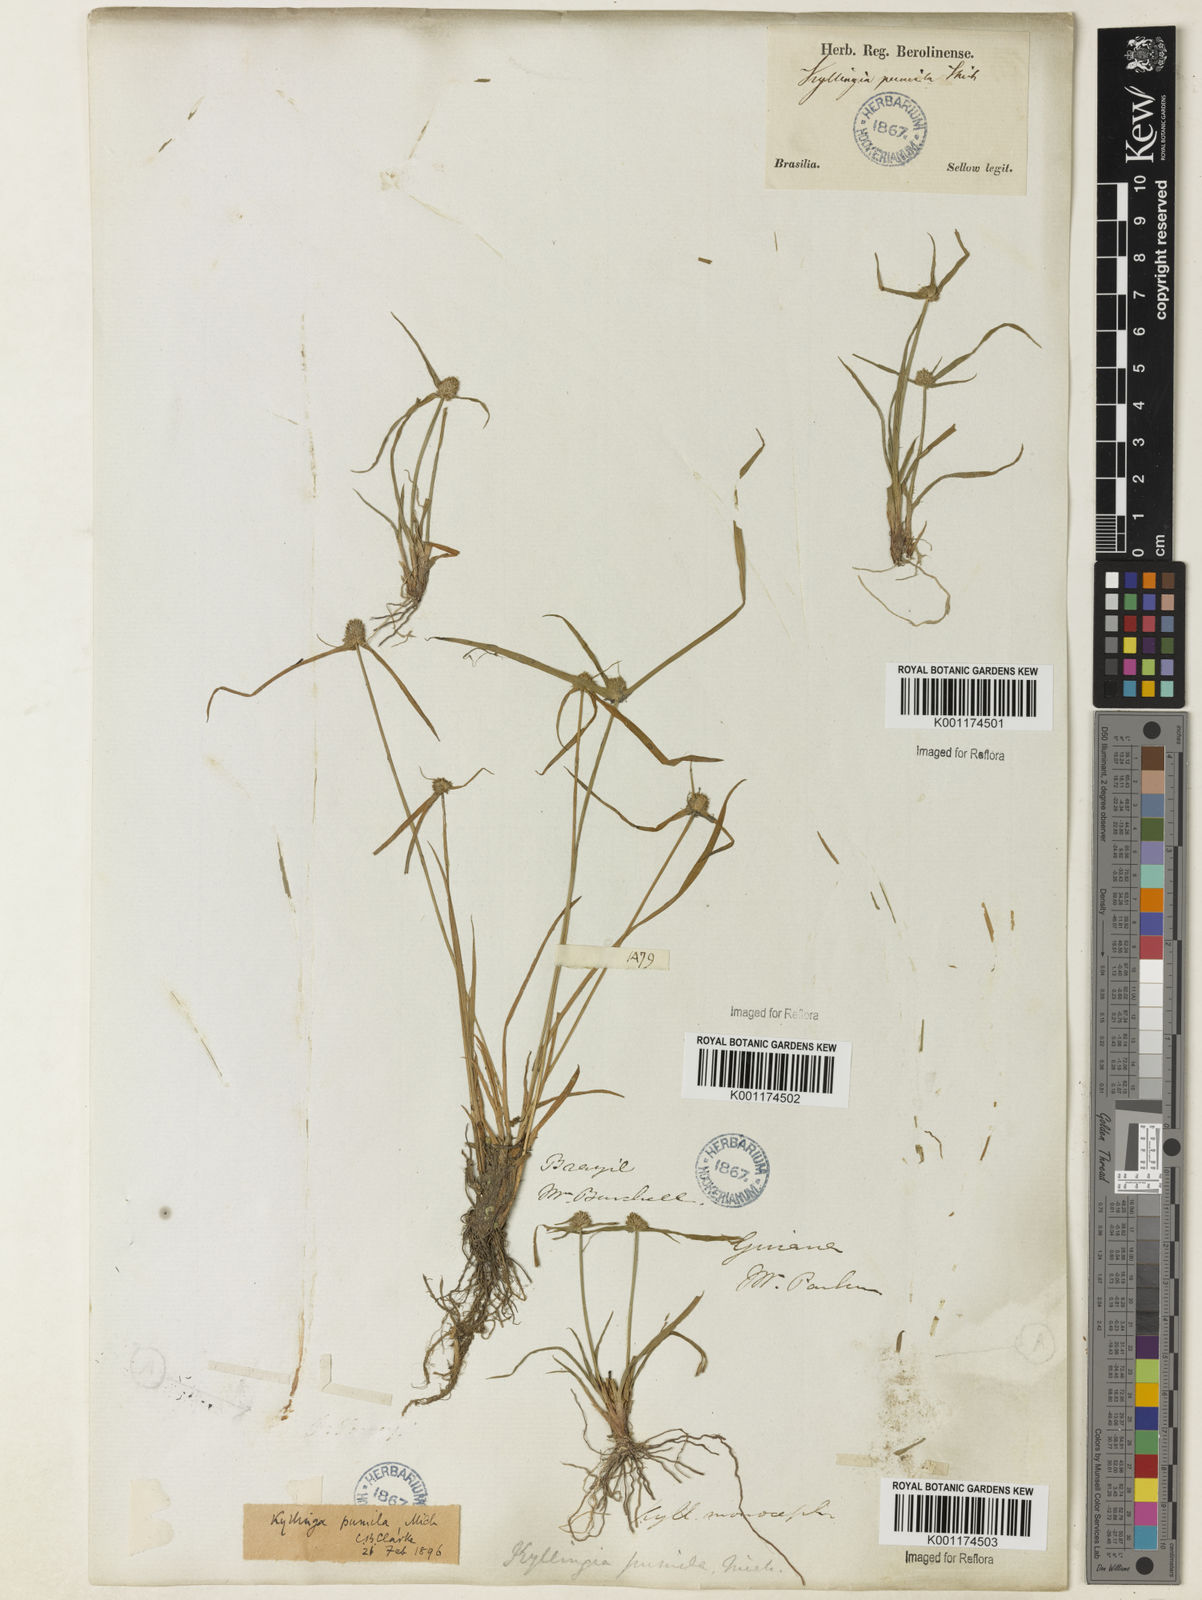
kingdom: Plantae
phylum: Tracheophyta
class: Liliopsida
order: Poales
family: Cyperaceae
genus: Cyperus
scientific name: Cyperus
